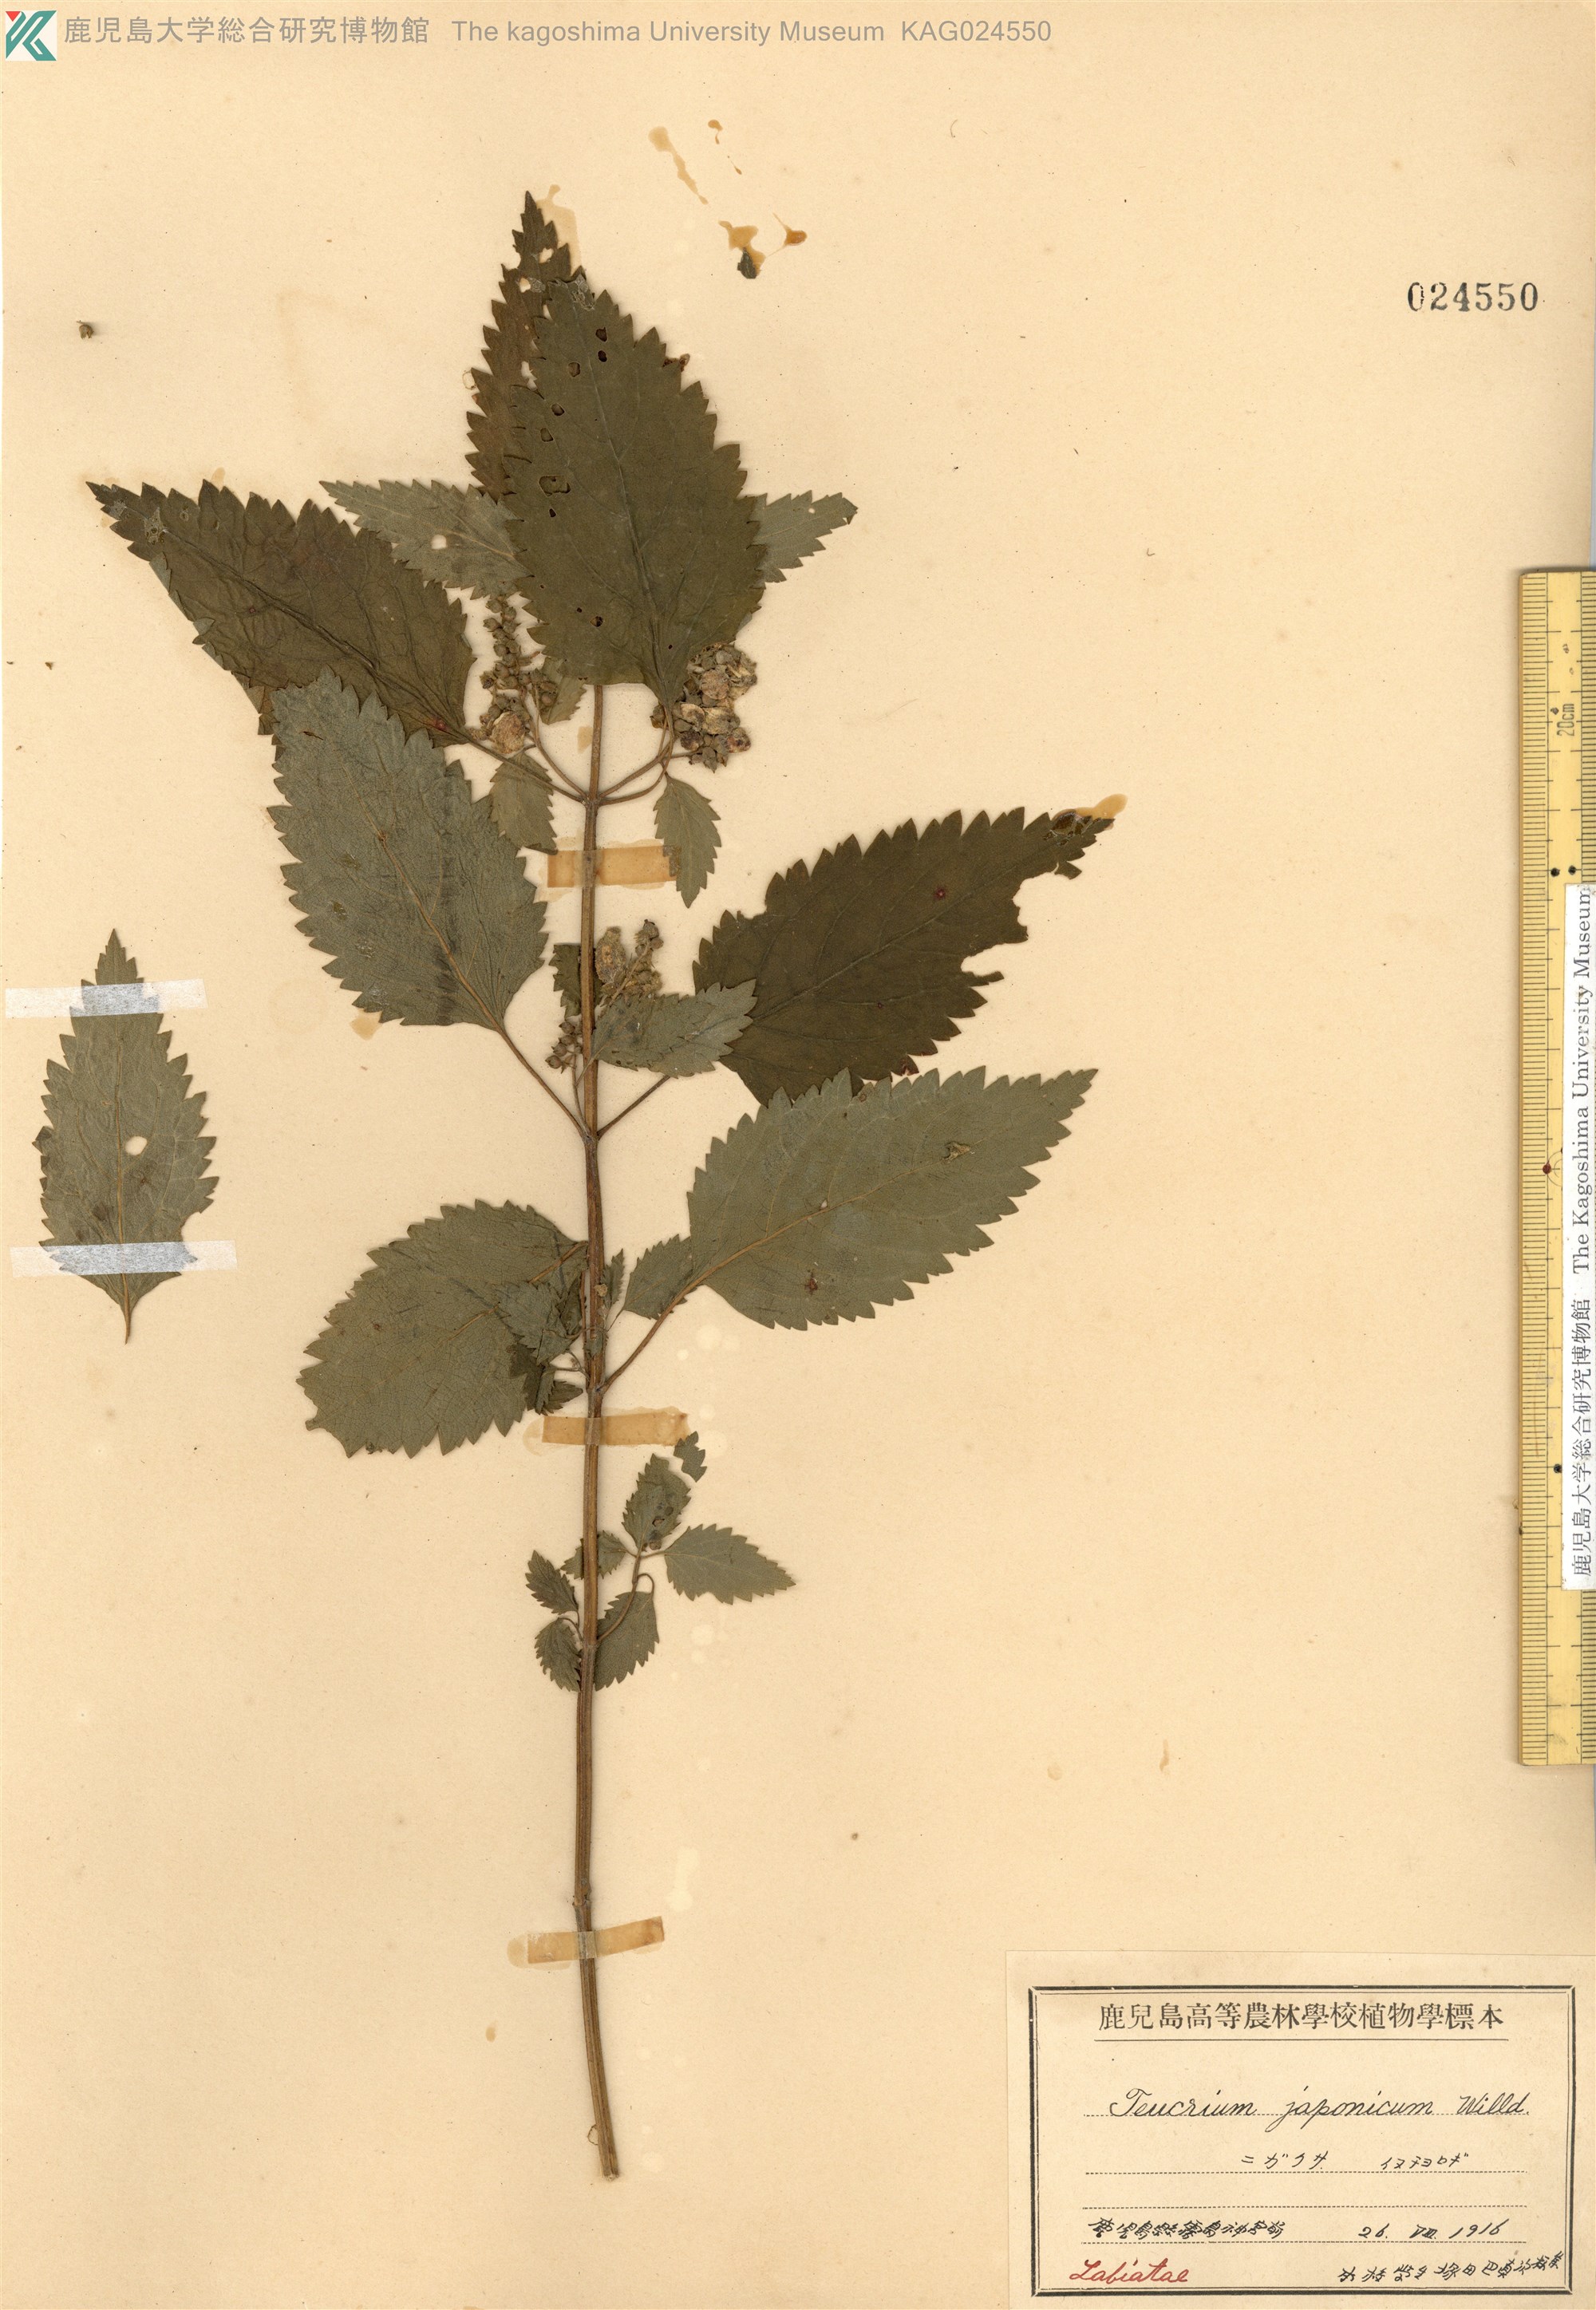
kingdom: Plantae
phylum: Tracheophyta
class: Magnoliopsida
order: Lamiales
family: Lamiaceae
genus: Teucrium
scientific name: Teucrium viscidum
